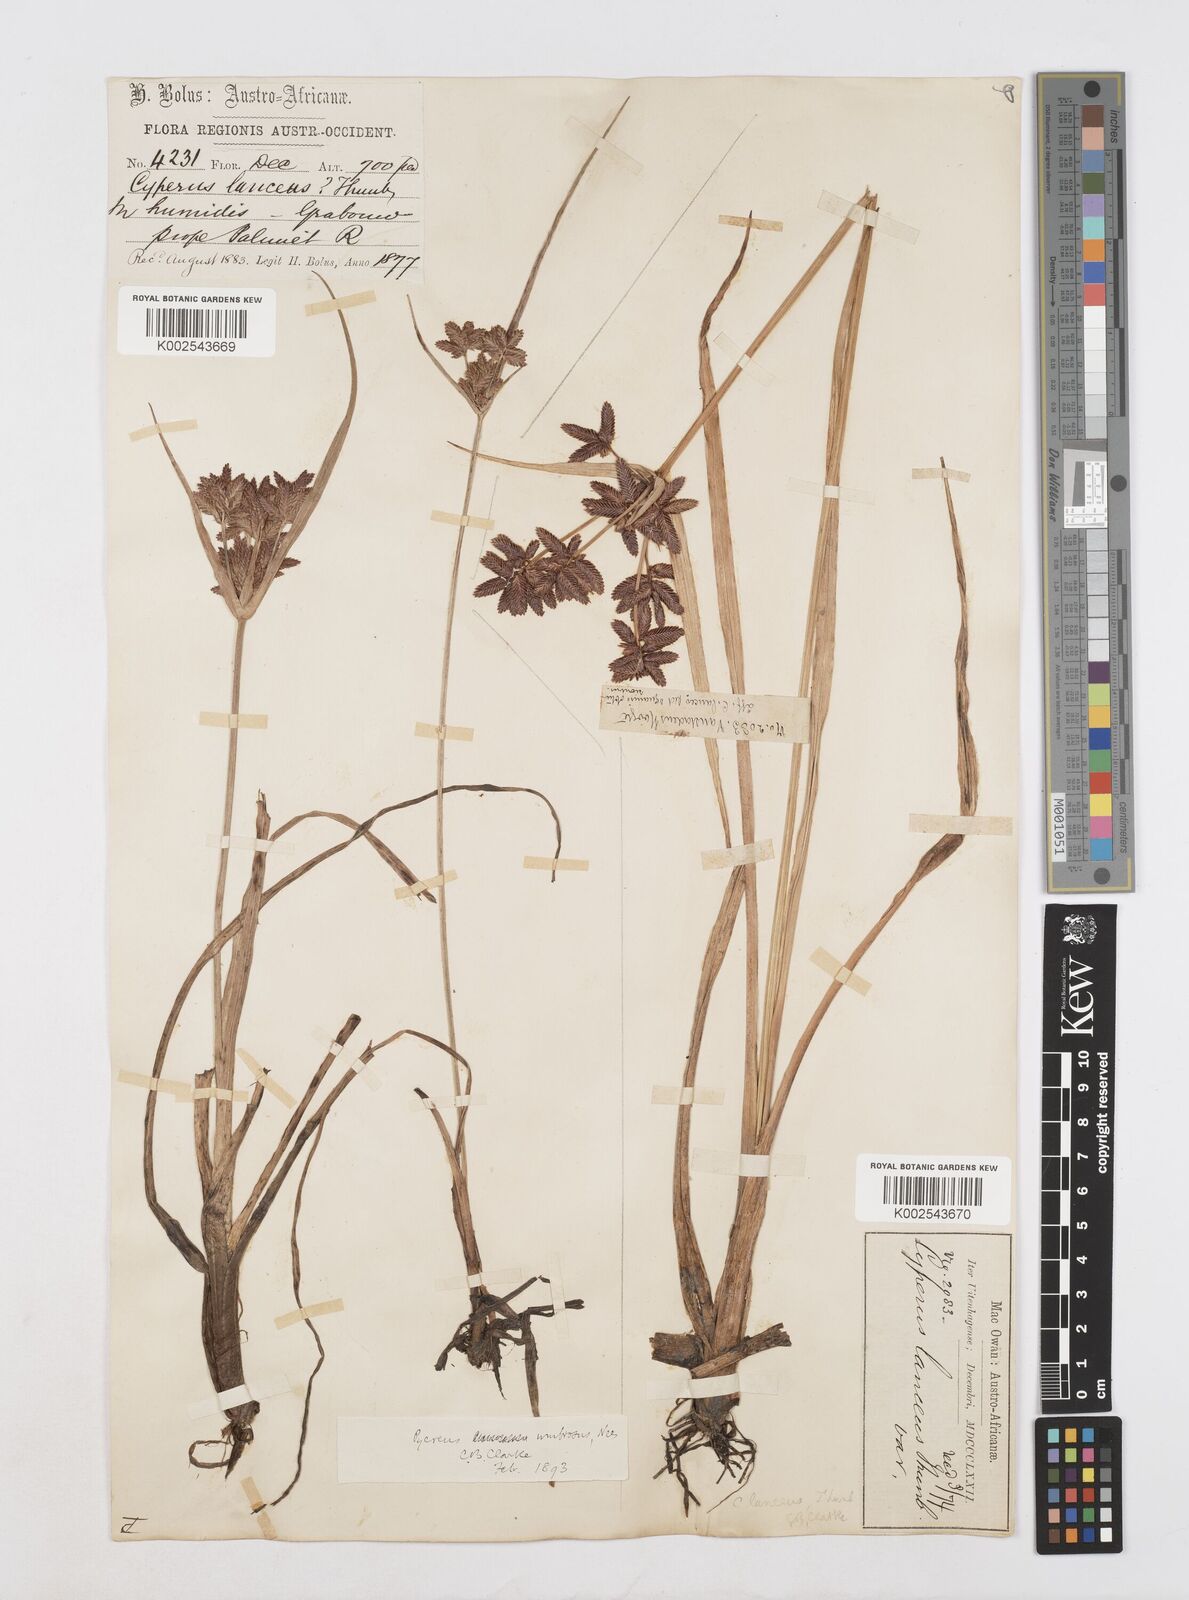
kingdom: Plantae
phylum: Tracheophyta
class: Liliopsida
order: Poales
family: Cyperaceae
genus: Cyperus
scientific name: Cyperus nitidus
